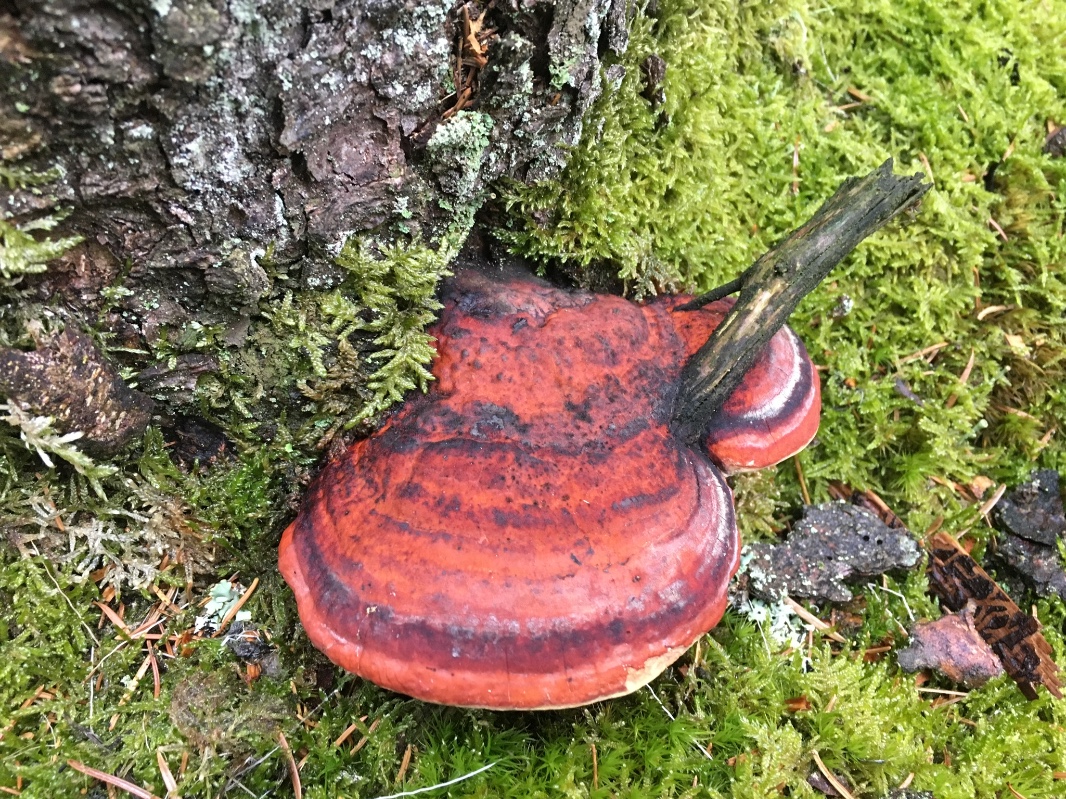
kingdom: Fungi
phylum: Basidiomycota
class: Agaricomycetes
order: Polyporales
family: Fomitopsidaceae
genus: Fomitopsis
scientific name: Fomitopsis pinicola
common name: randbæltet hovporesvamp
